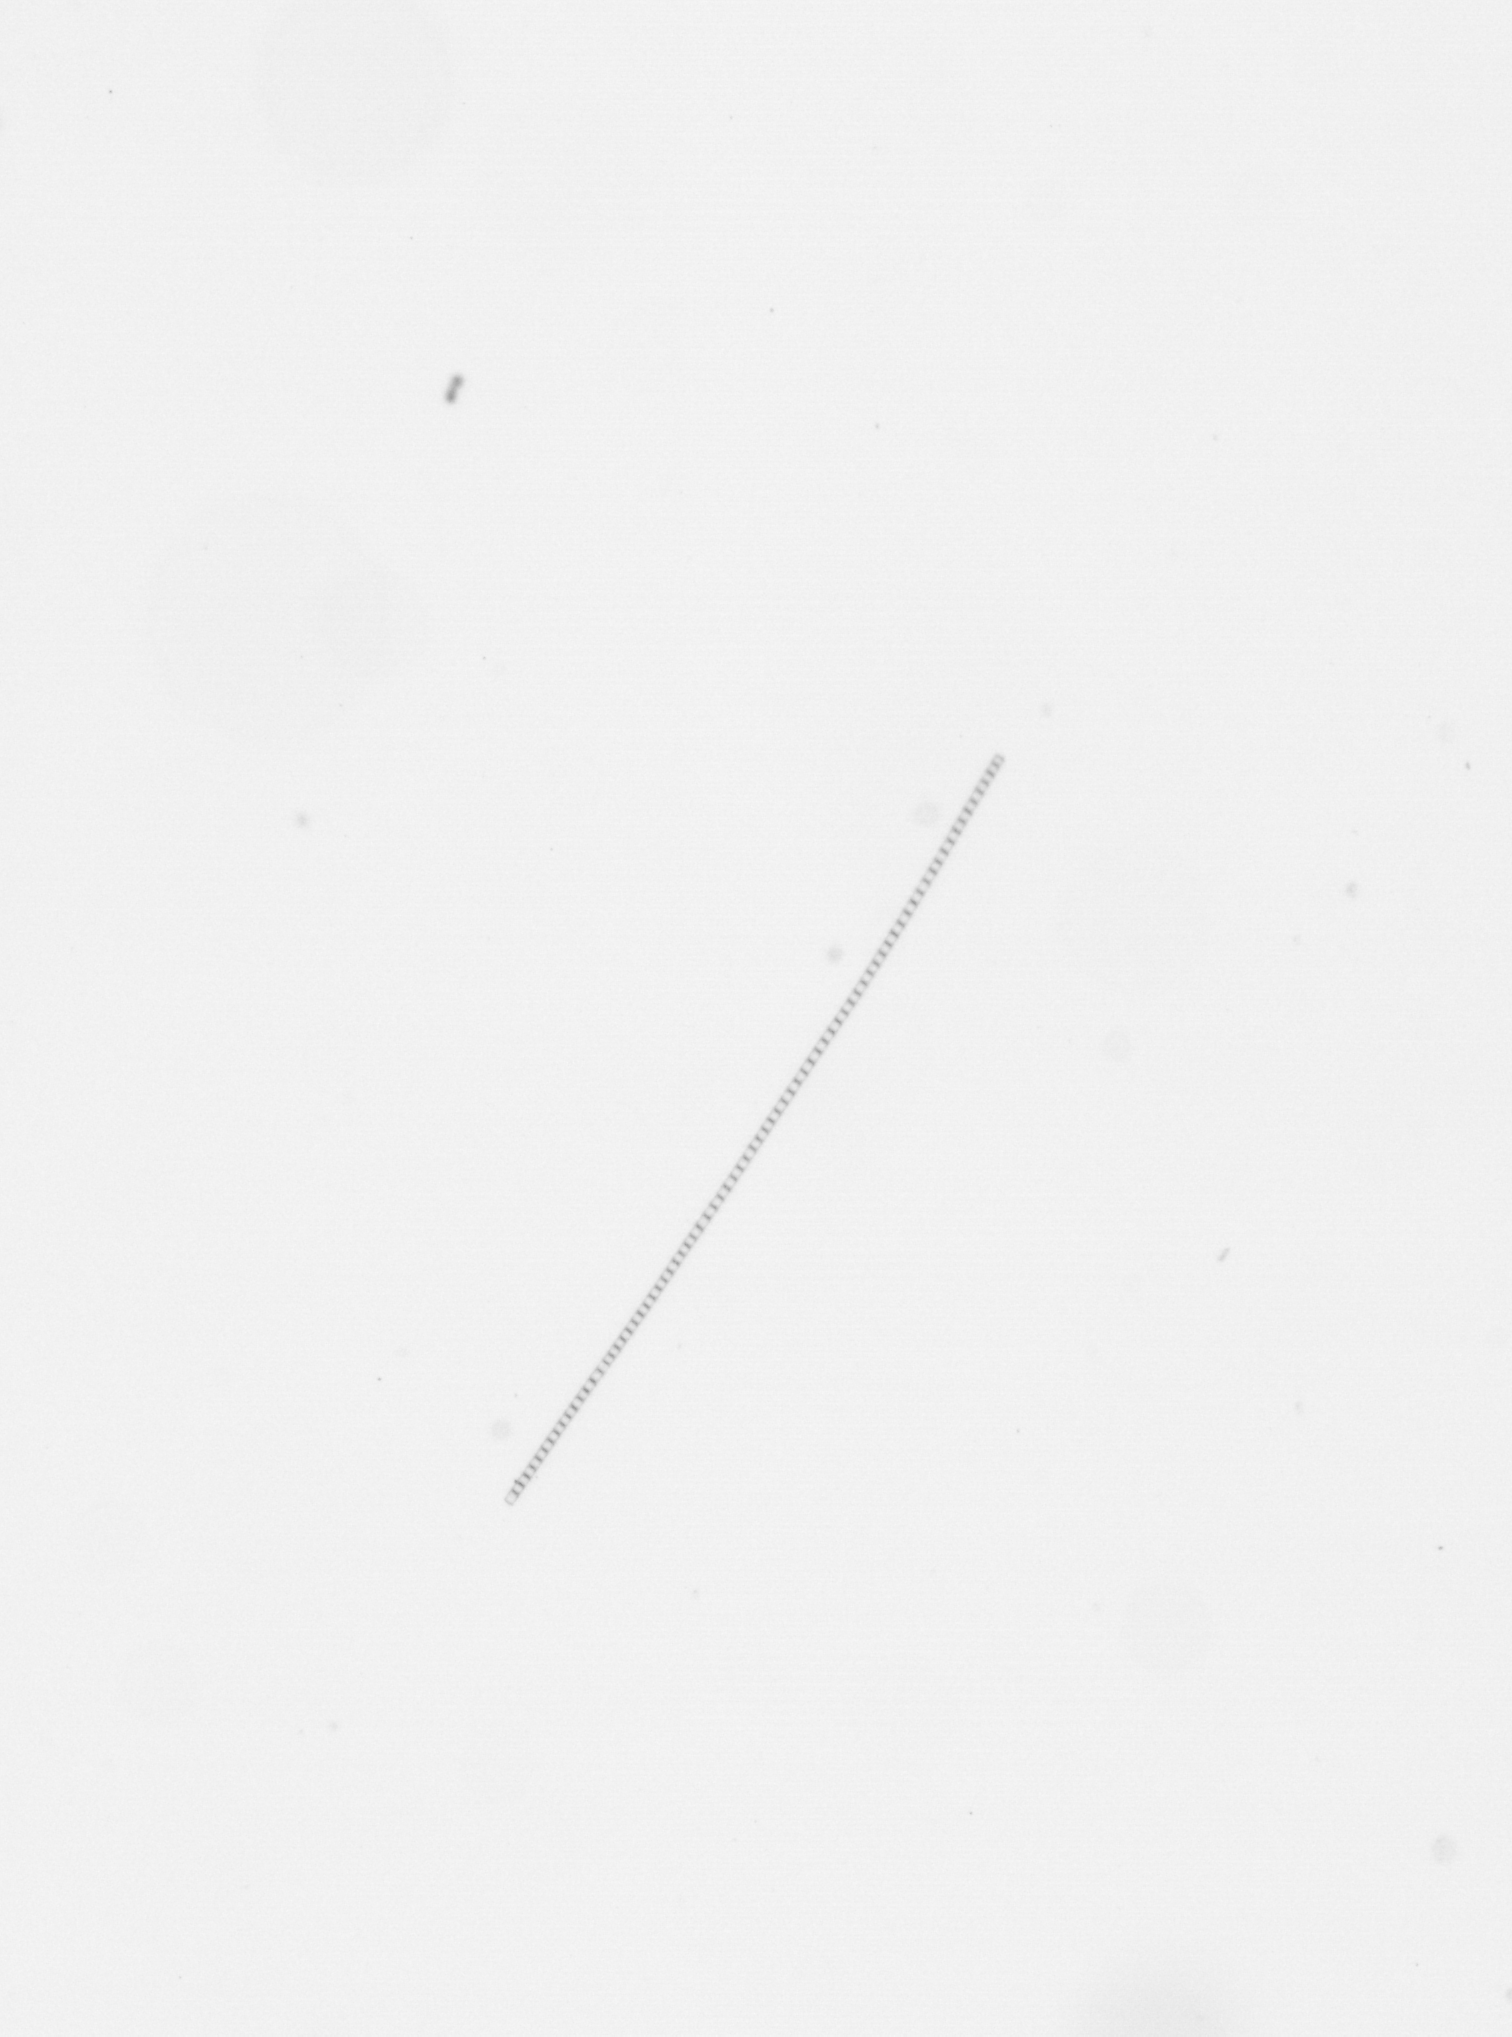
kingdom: Chromista
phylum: Ochrophyta
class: Bacillariophyceae
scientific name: Bacillariophyceae
